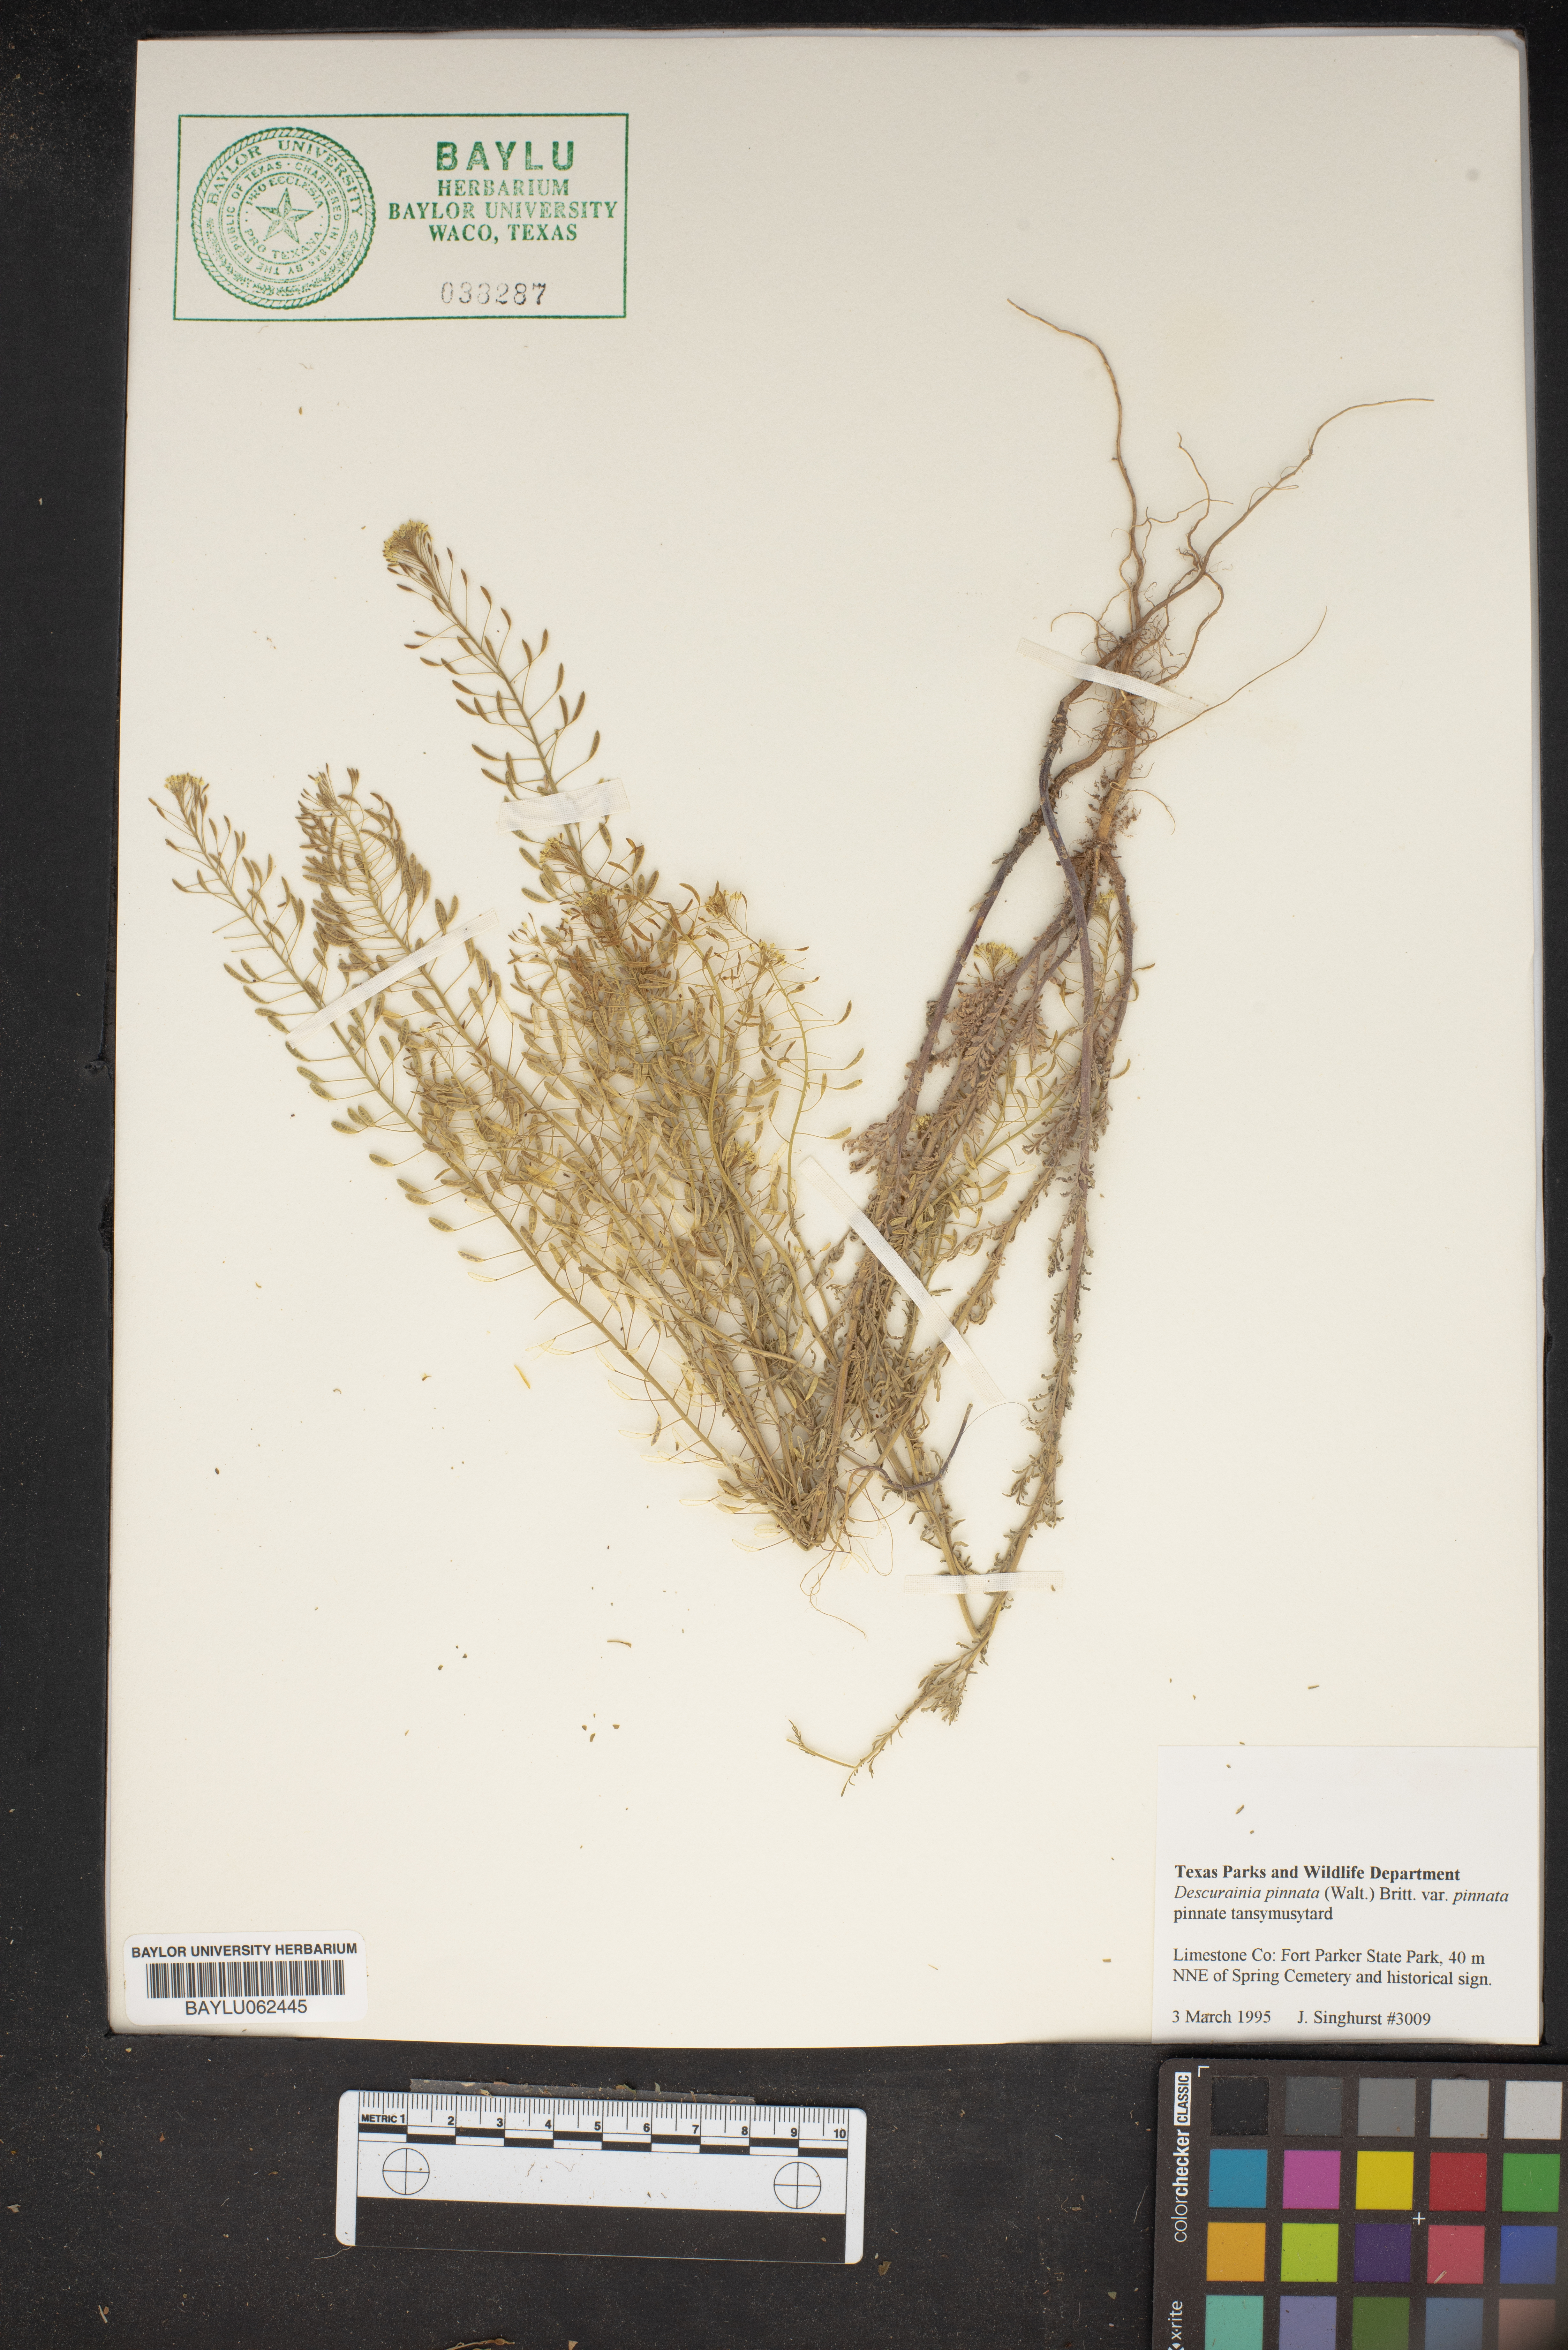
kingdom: Plantae
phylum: Tracheophyta
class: Magnoliopsida
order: Brassicales
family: Brassicaceae
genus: Descurainia
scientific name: Descurainia pinnata
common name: Western tansy mustard
